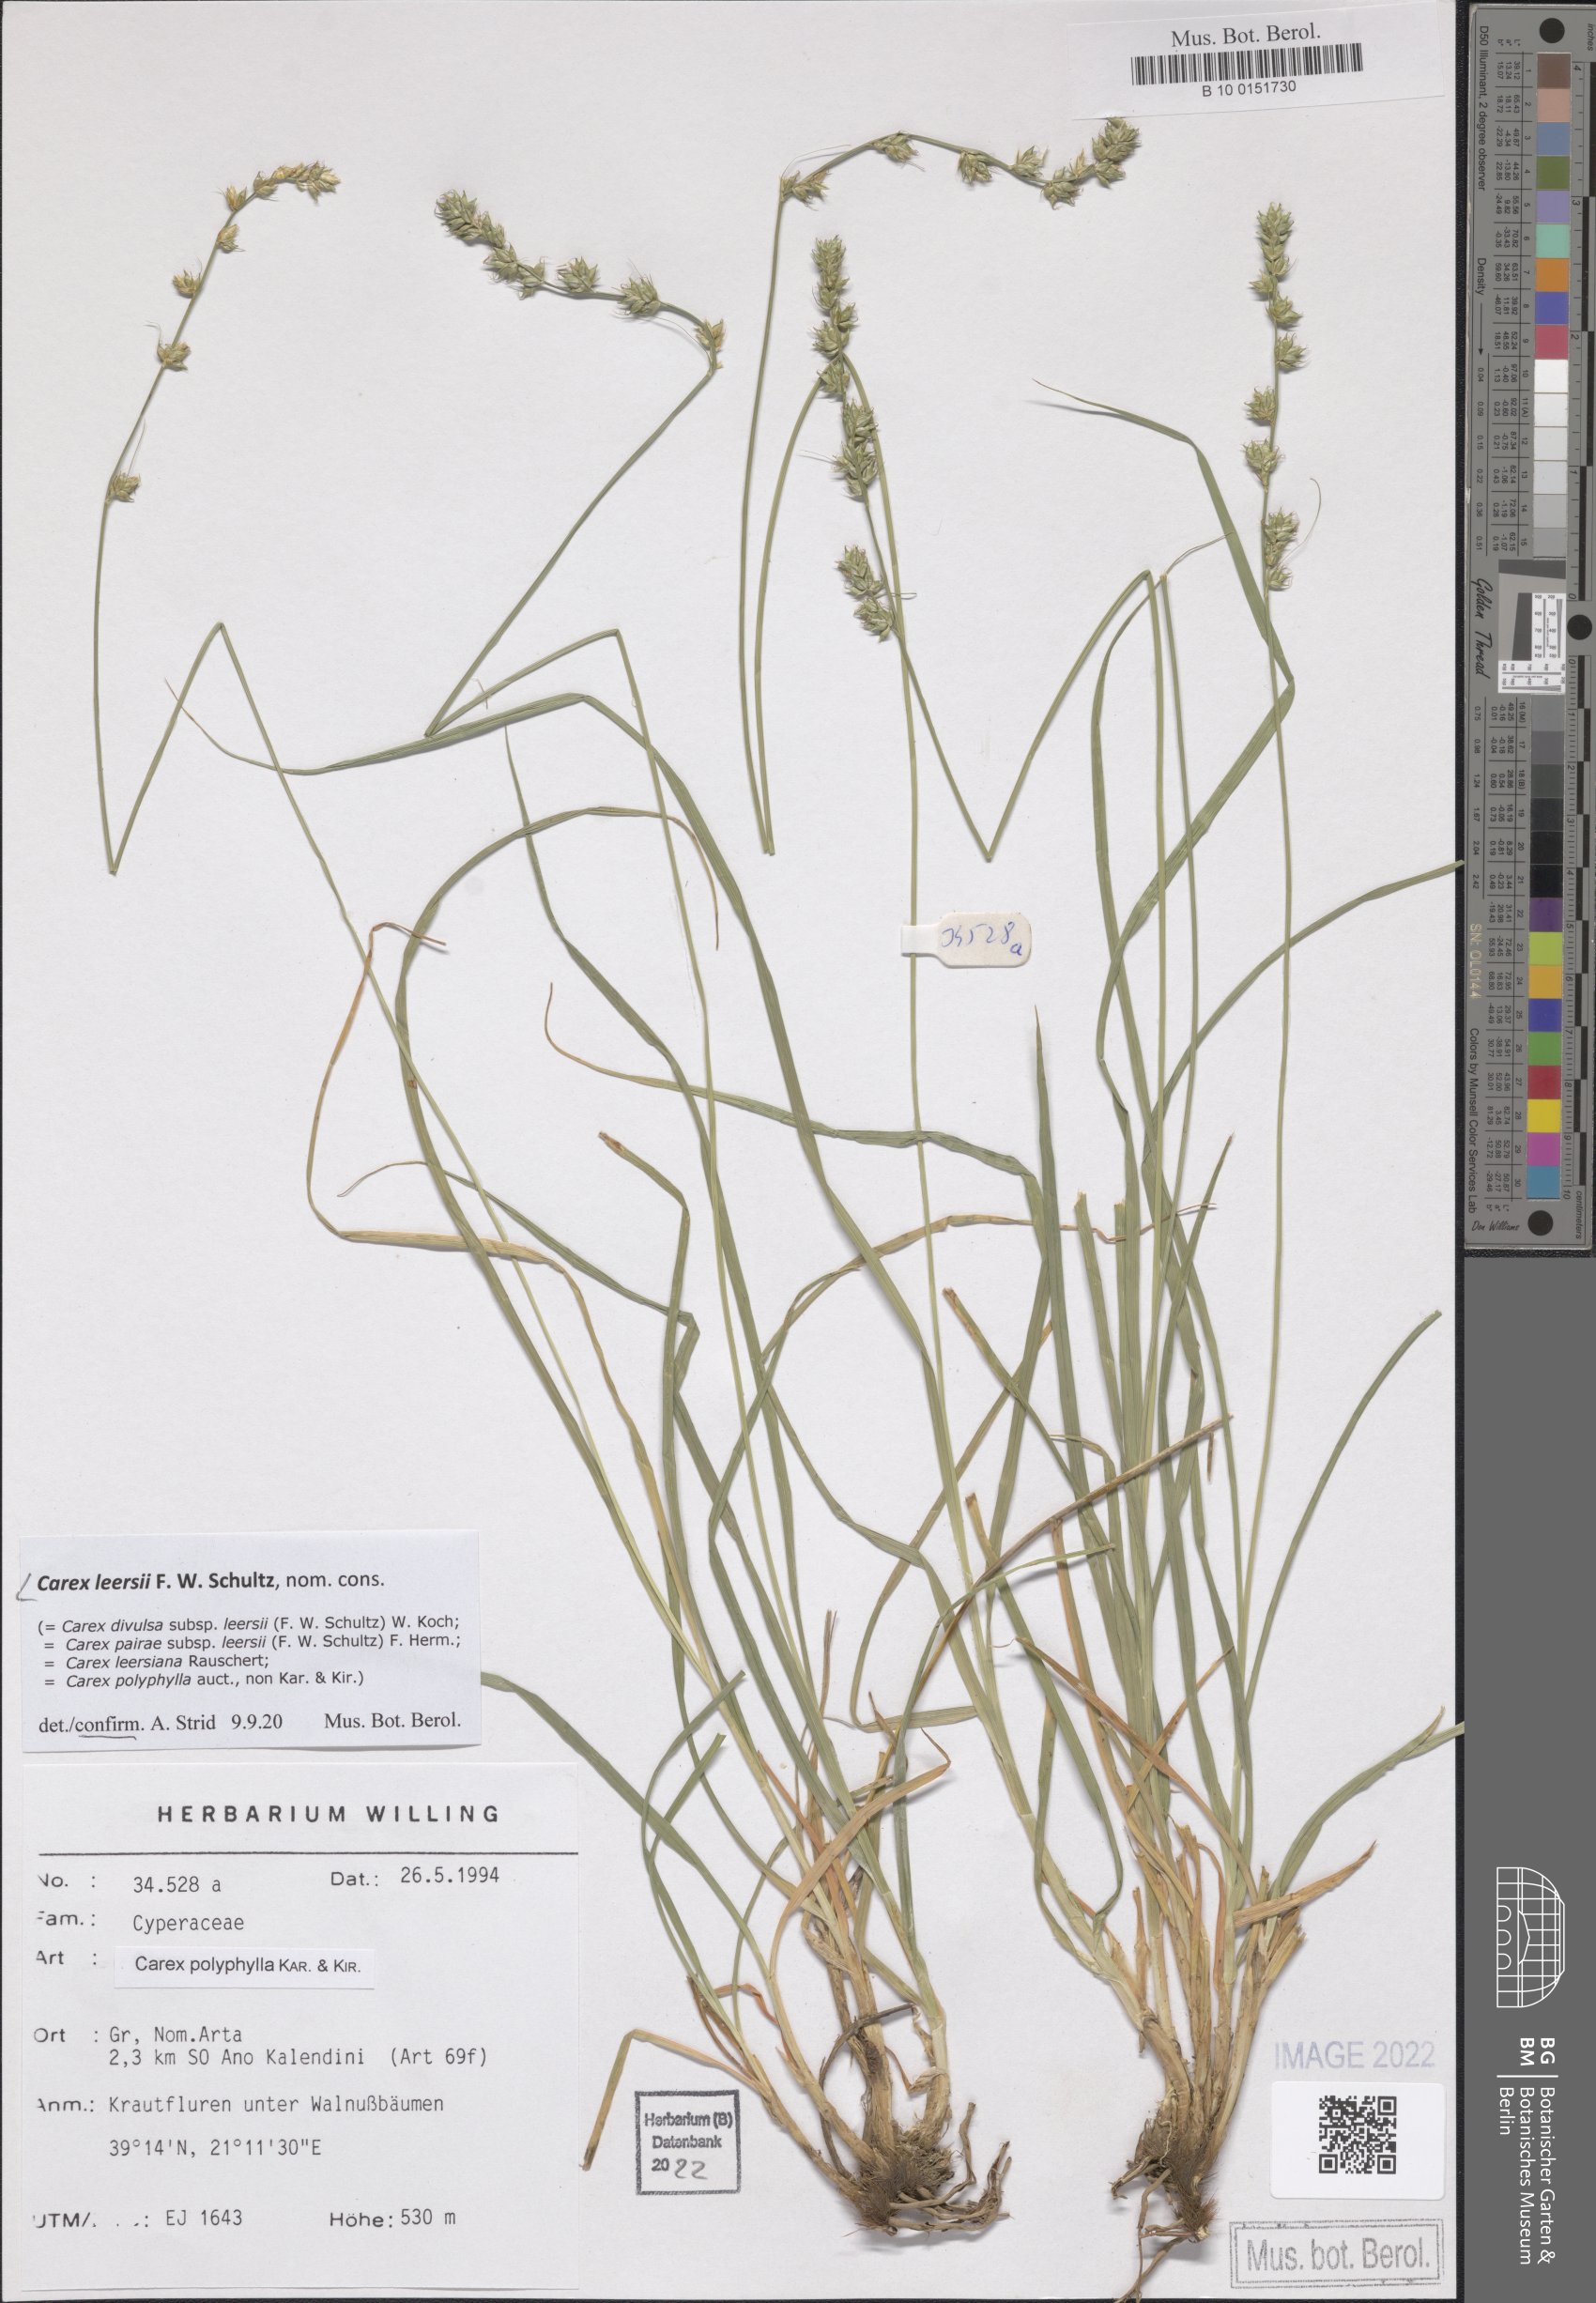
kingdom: Plantae
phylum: Tracheophyta
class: Liliopsida
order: Poales
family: Cyperaceae
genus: Carex
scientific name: Carex leersii
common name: Leers' sedge
